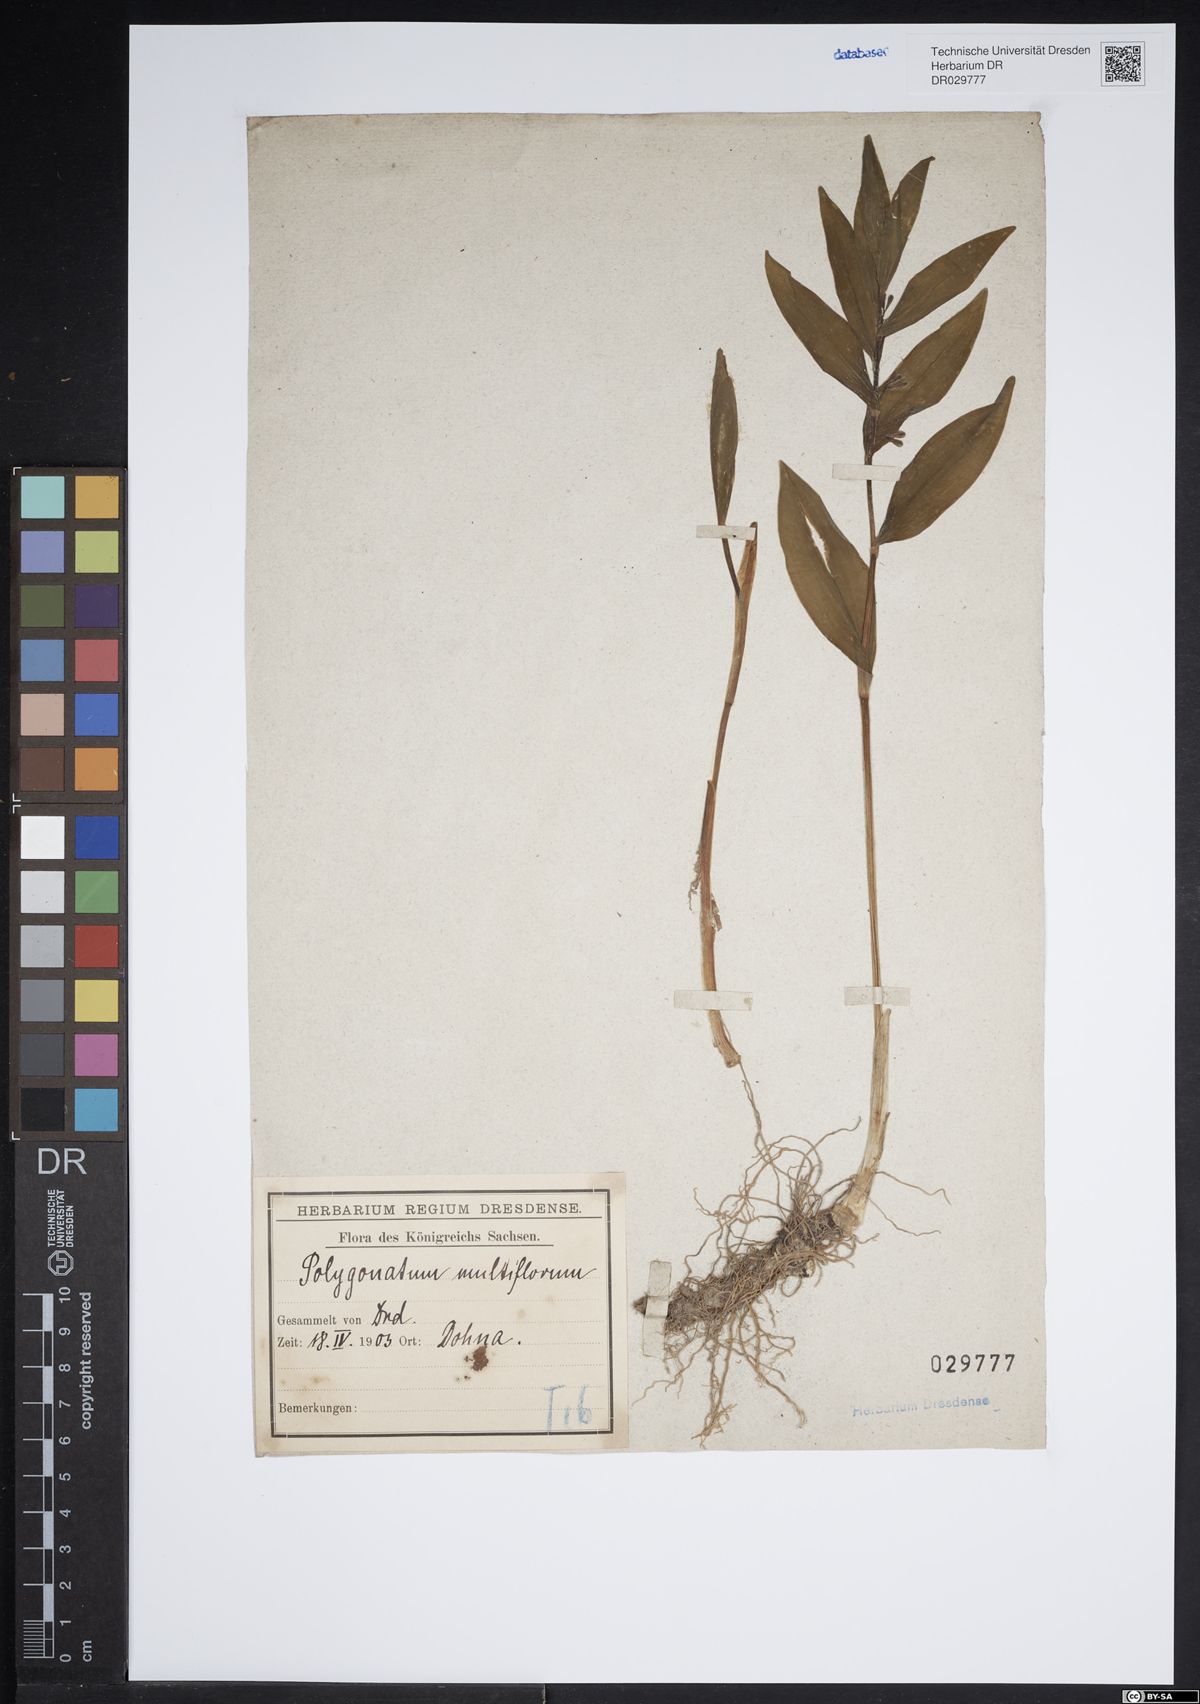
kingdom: Plantae
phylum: Tracheophyta
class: Liliopsida
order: Asparagales
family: Asparagaceae
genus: Polygonatum
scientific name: Polygonatum multiflorum
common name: Solomon's-seal
